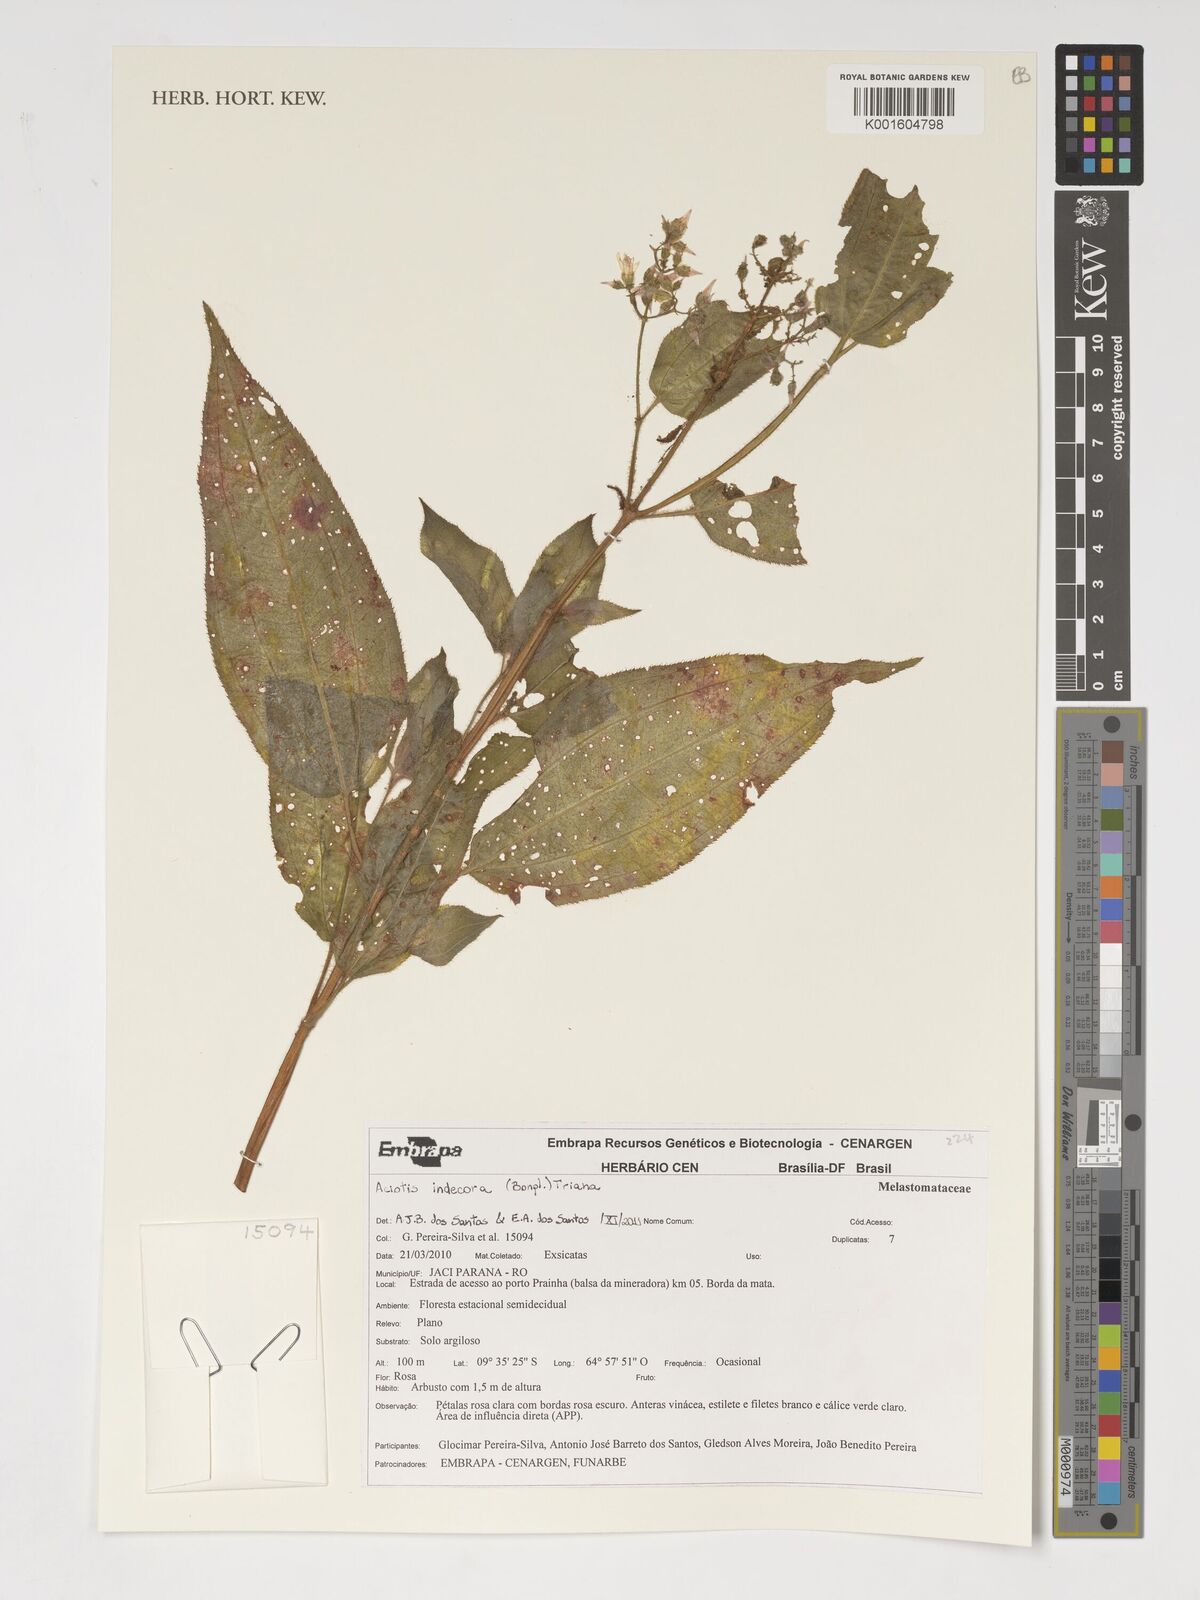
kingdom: Plantae
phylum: Tracheophyta
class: Magnoliopsida
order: Myrtales
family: Melastomataceae
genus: Aciotis
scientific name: Aciotis indecora
